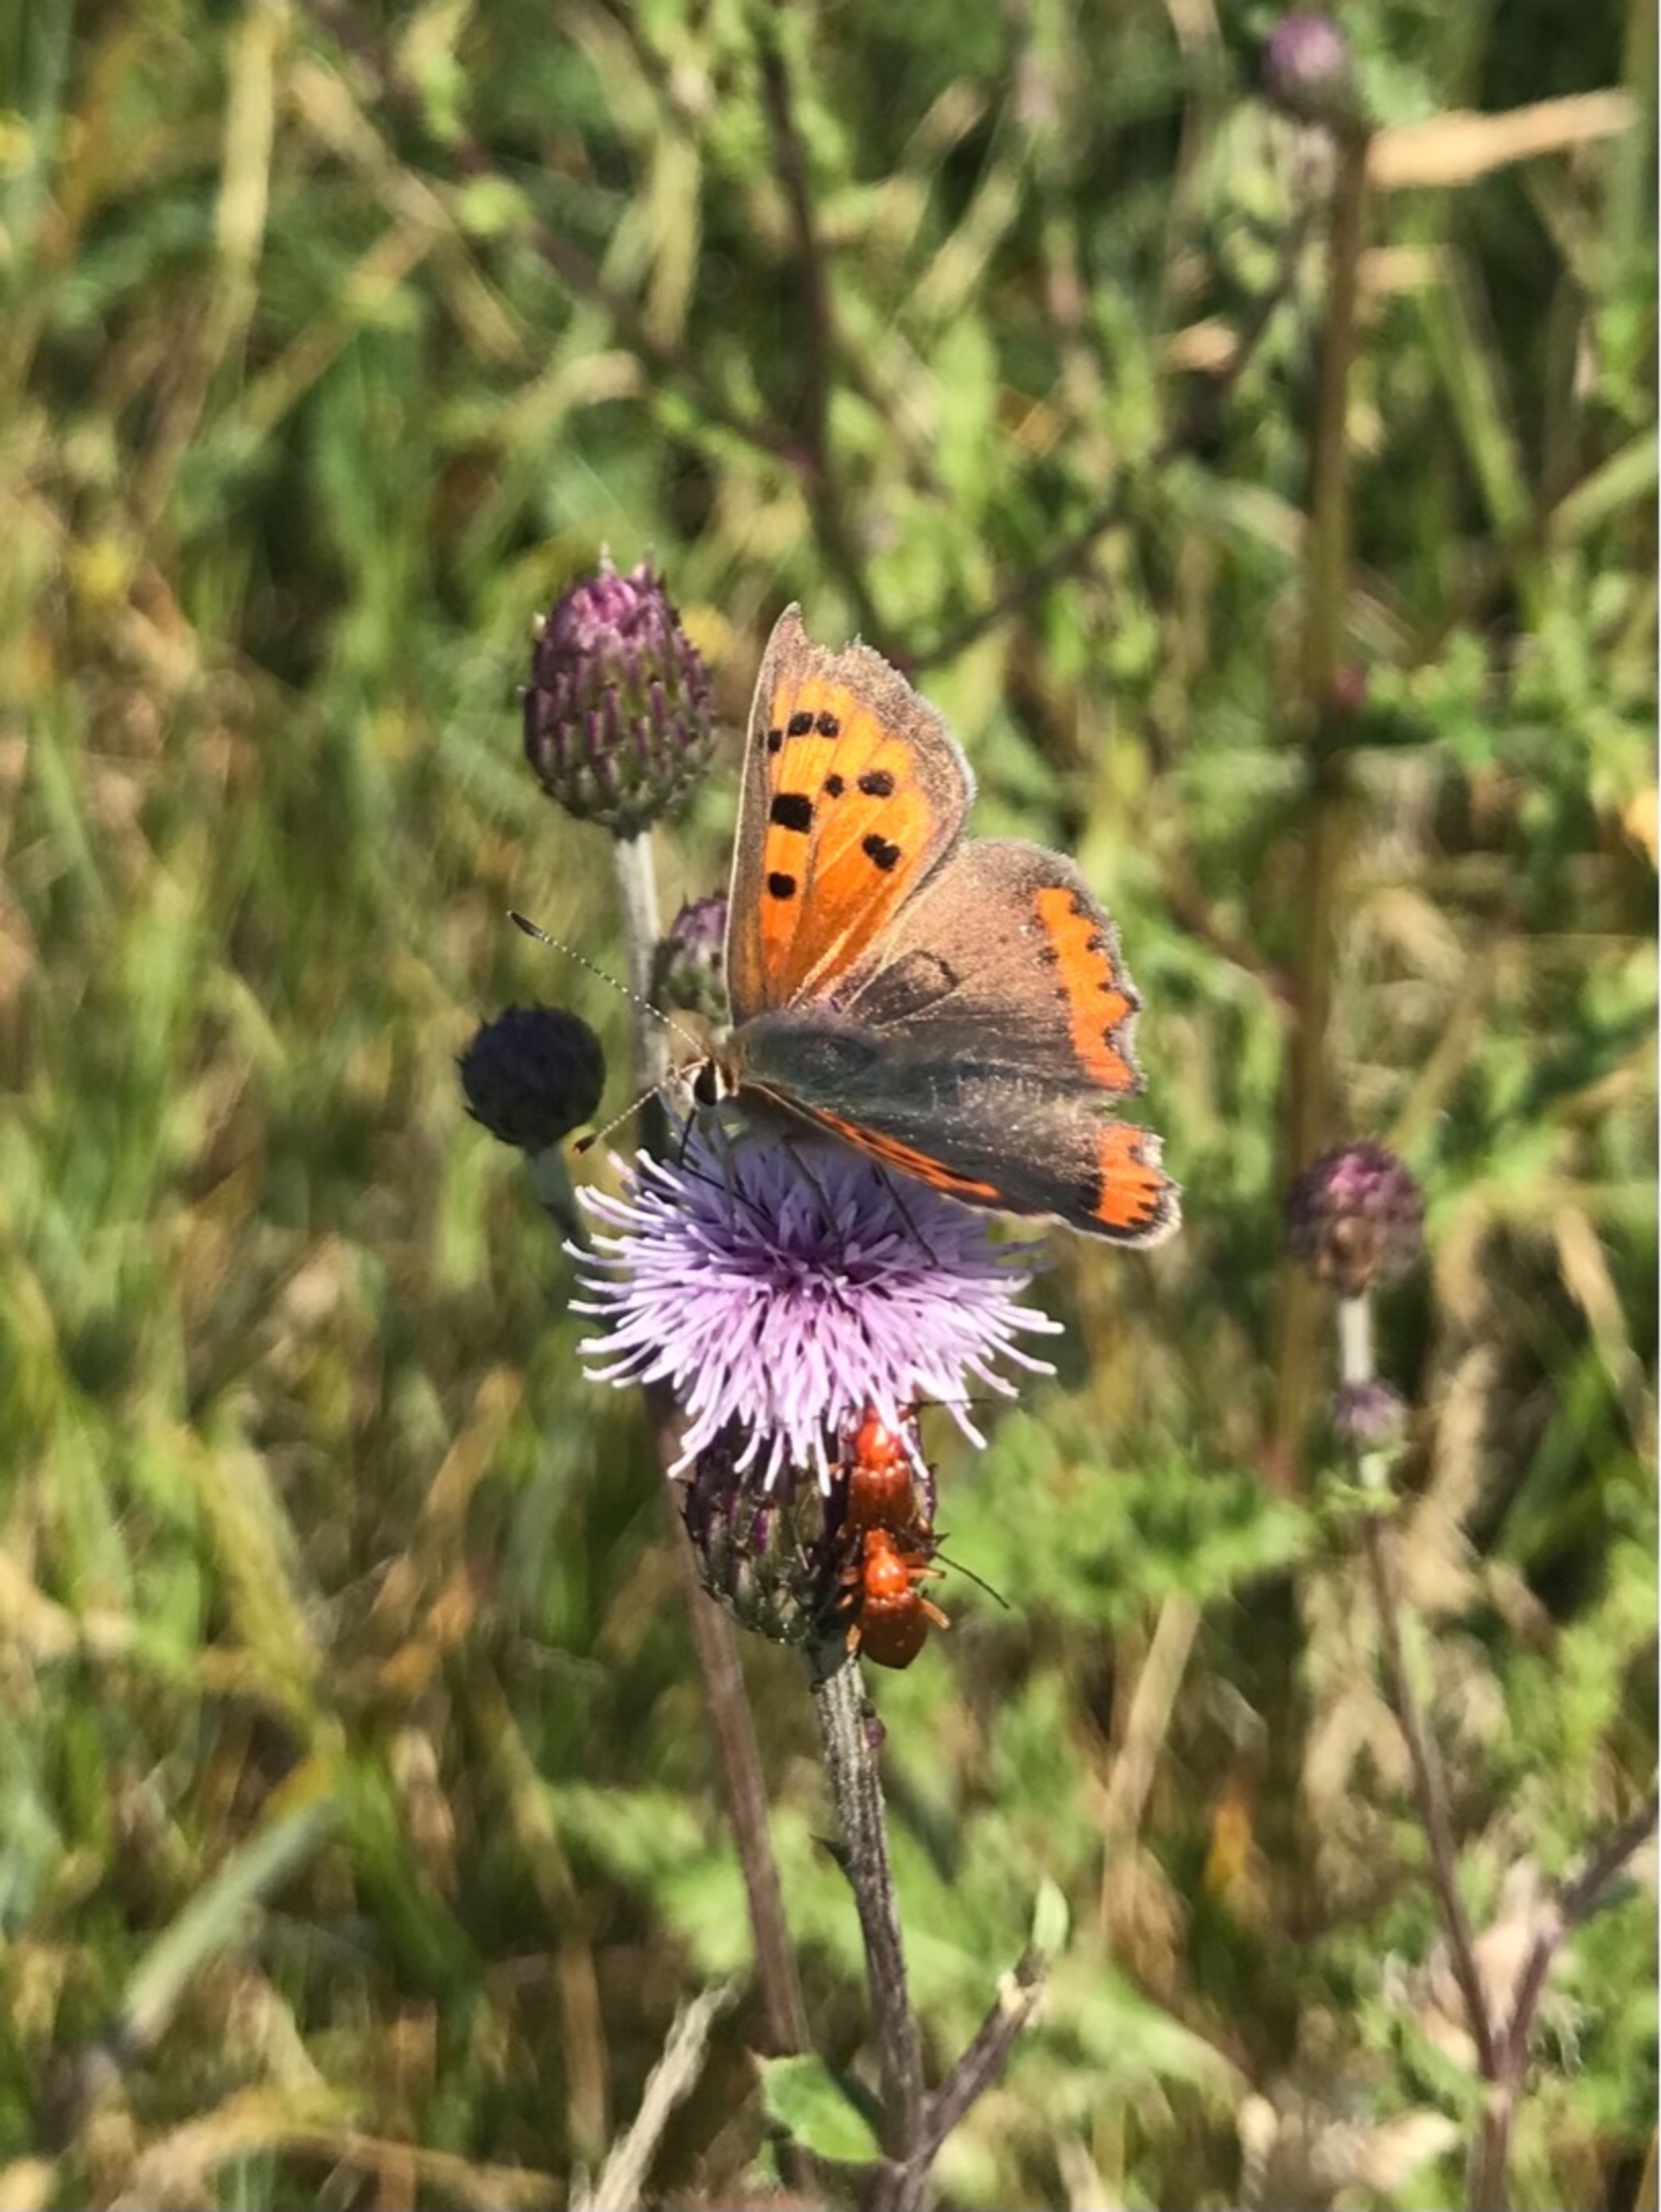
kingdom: Animalia
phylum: Arthropoda
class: Insecta
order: Lepidoptera
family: Lycaenidae
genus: Lycaena
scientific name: Lycaena phlaeas
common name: Lille ildfugl
